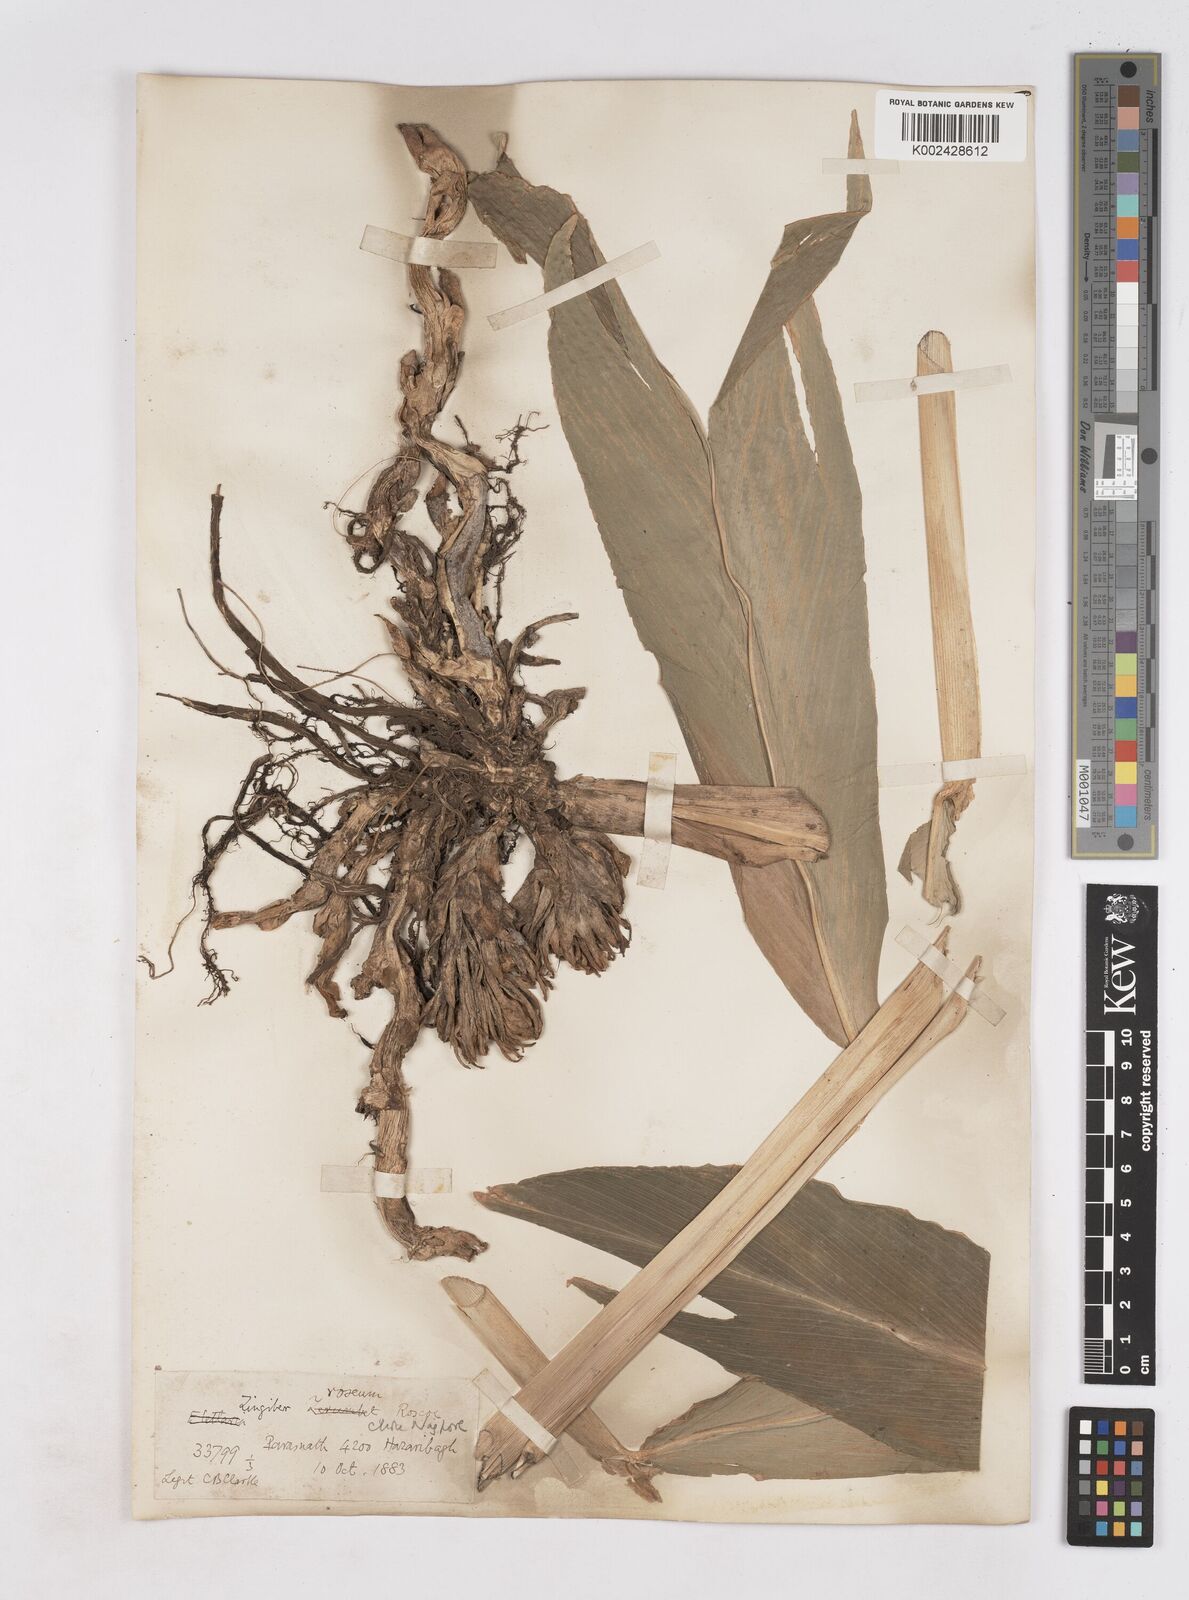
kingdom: Plantae
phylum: Tracheophyta
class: Liliopsida
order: Zingiberales
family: Zingiberaceae
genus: Zingiber
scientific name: Zingiber roseum
